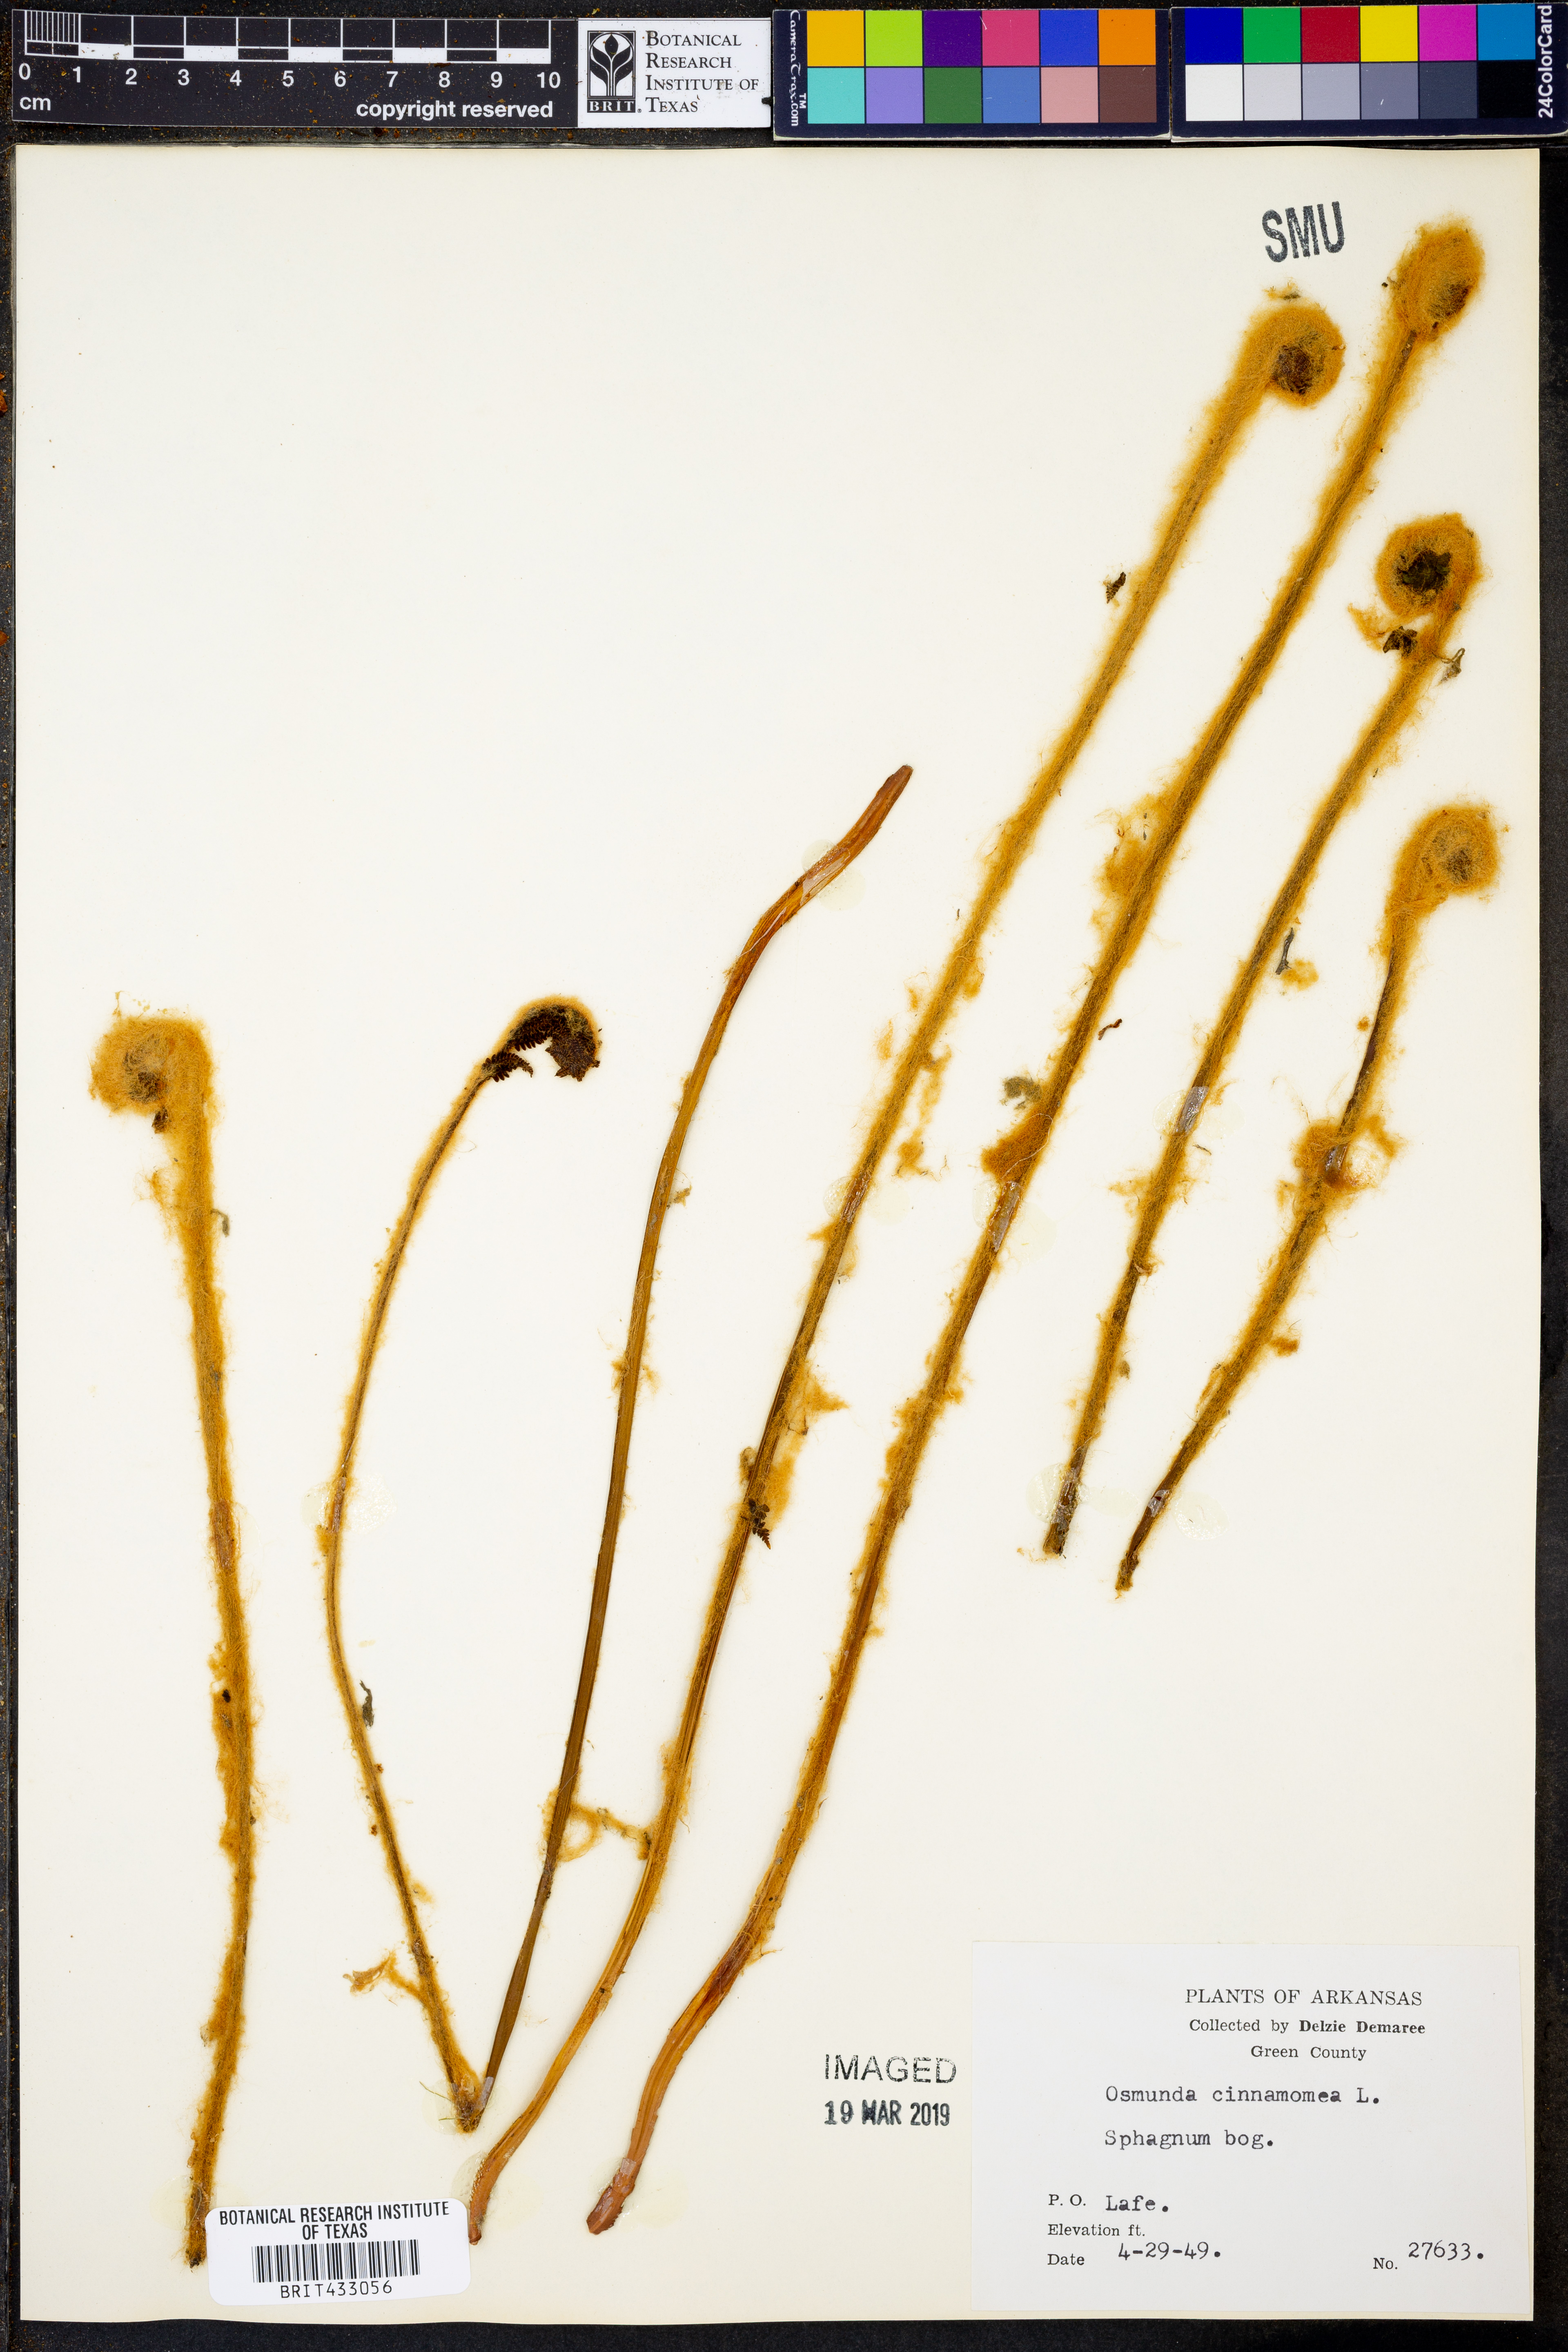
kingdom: Plantae
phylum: Tracheophyta
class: Polypodiopsida
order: Osmundales
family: Osmundaceae
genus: Osmundastrum
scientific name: Osmundastrum cinnamomeum
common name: Cinnamon fern
